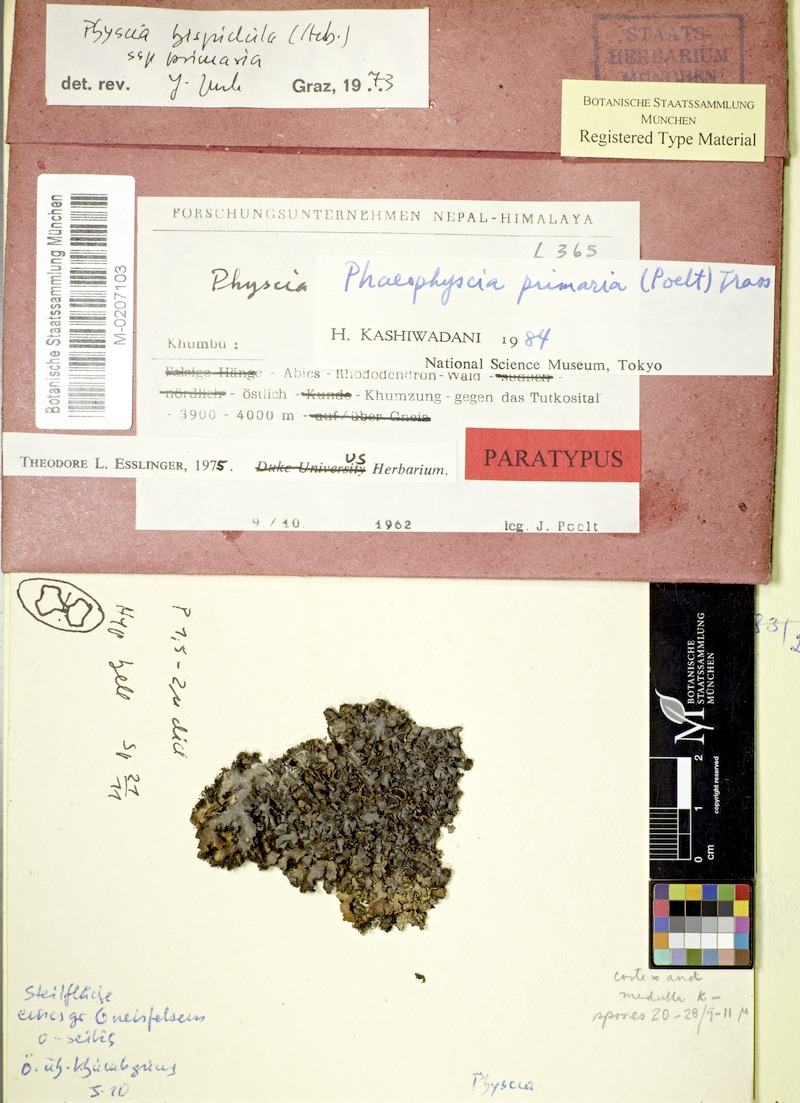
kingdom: Fungi
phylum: Ascomycota
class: Lecanoromycetes
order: Caliciales
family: Physciaceae
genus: Phaeophyscia
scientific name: Phaeophyscia primaria
